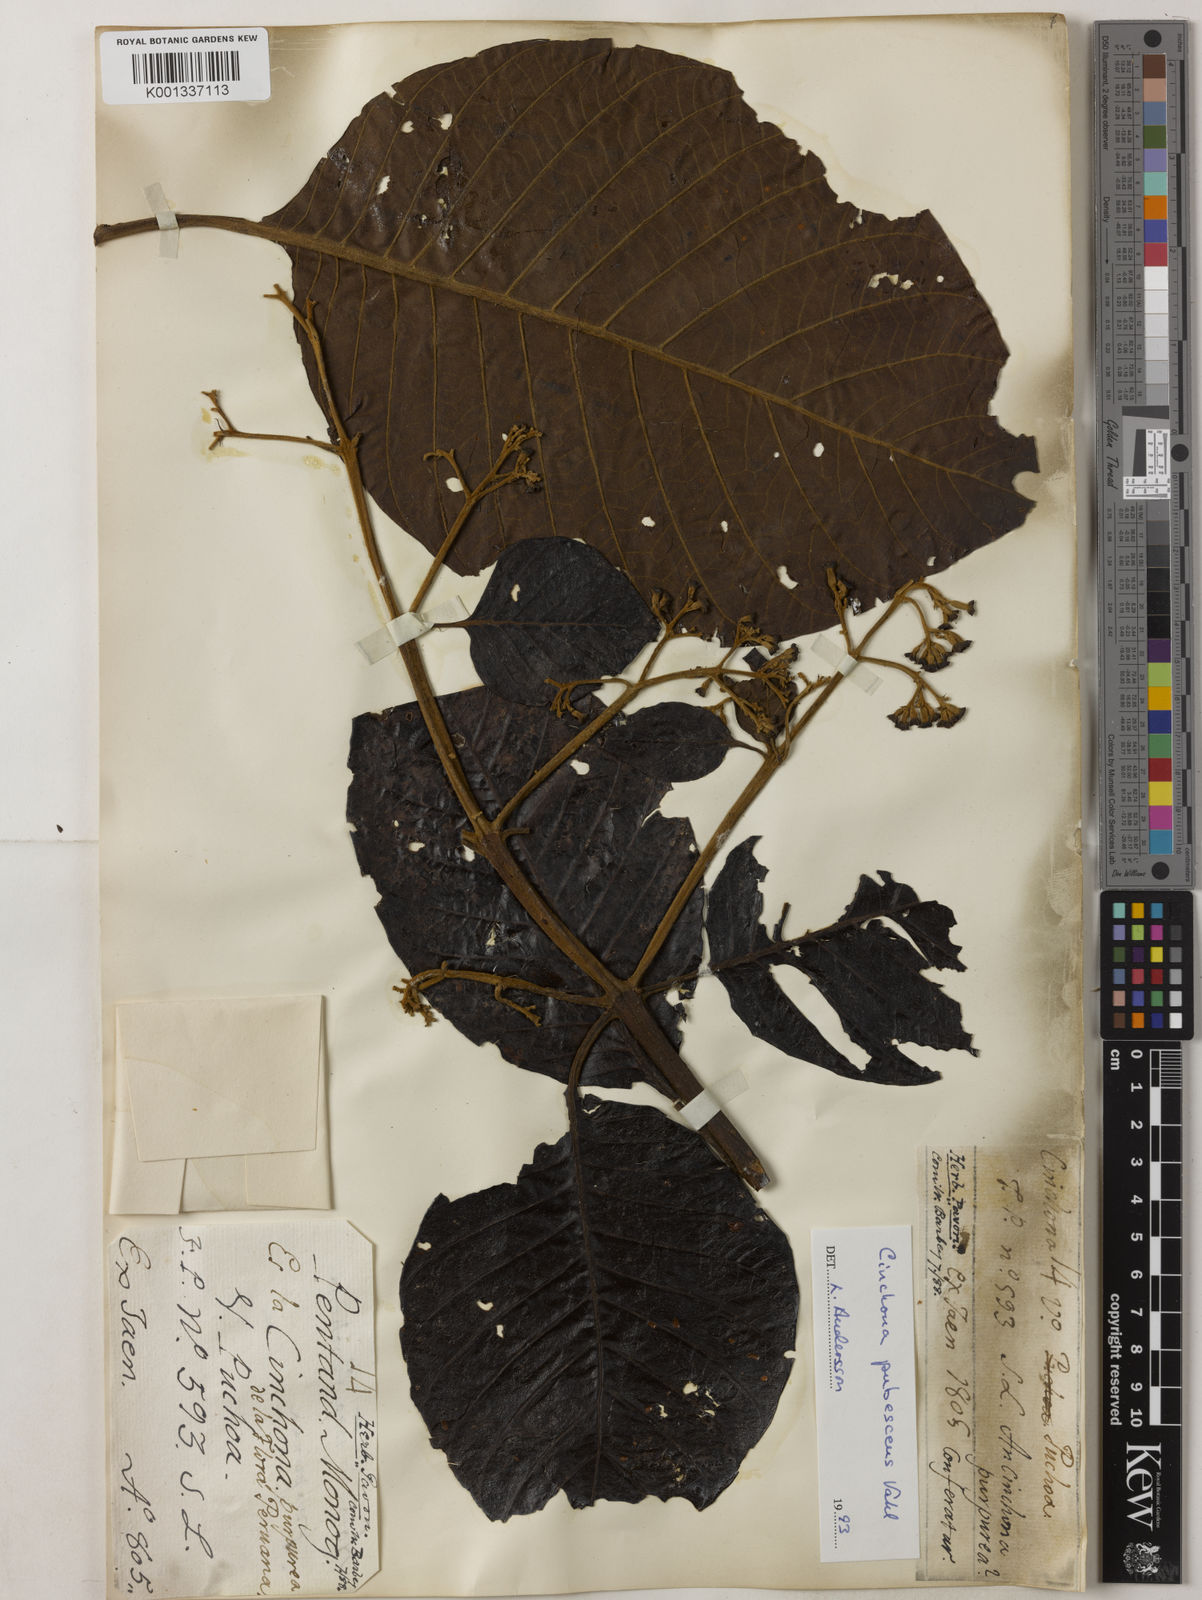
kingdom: Plantae
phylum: Tracheophyta
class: Magnoliopsida
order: Gentianales
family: Rubiaceae
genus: Cinchona
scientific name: Cinchona pubescens
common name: Quinine
